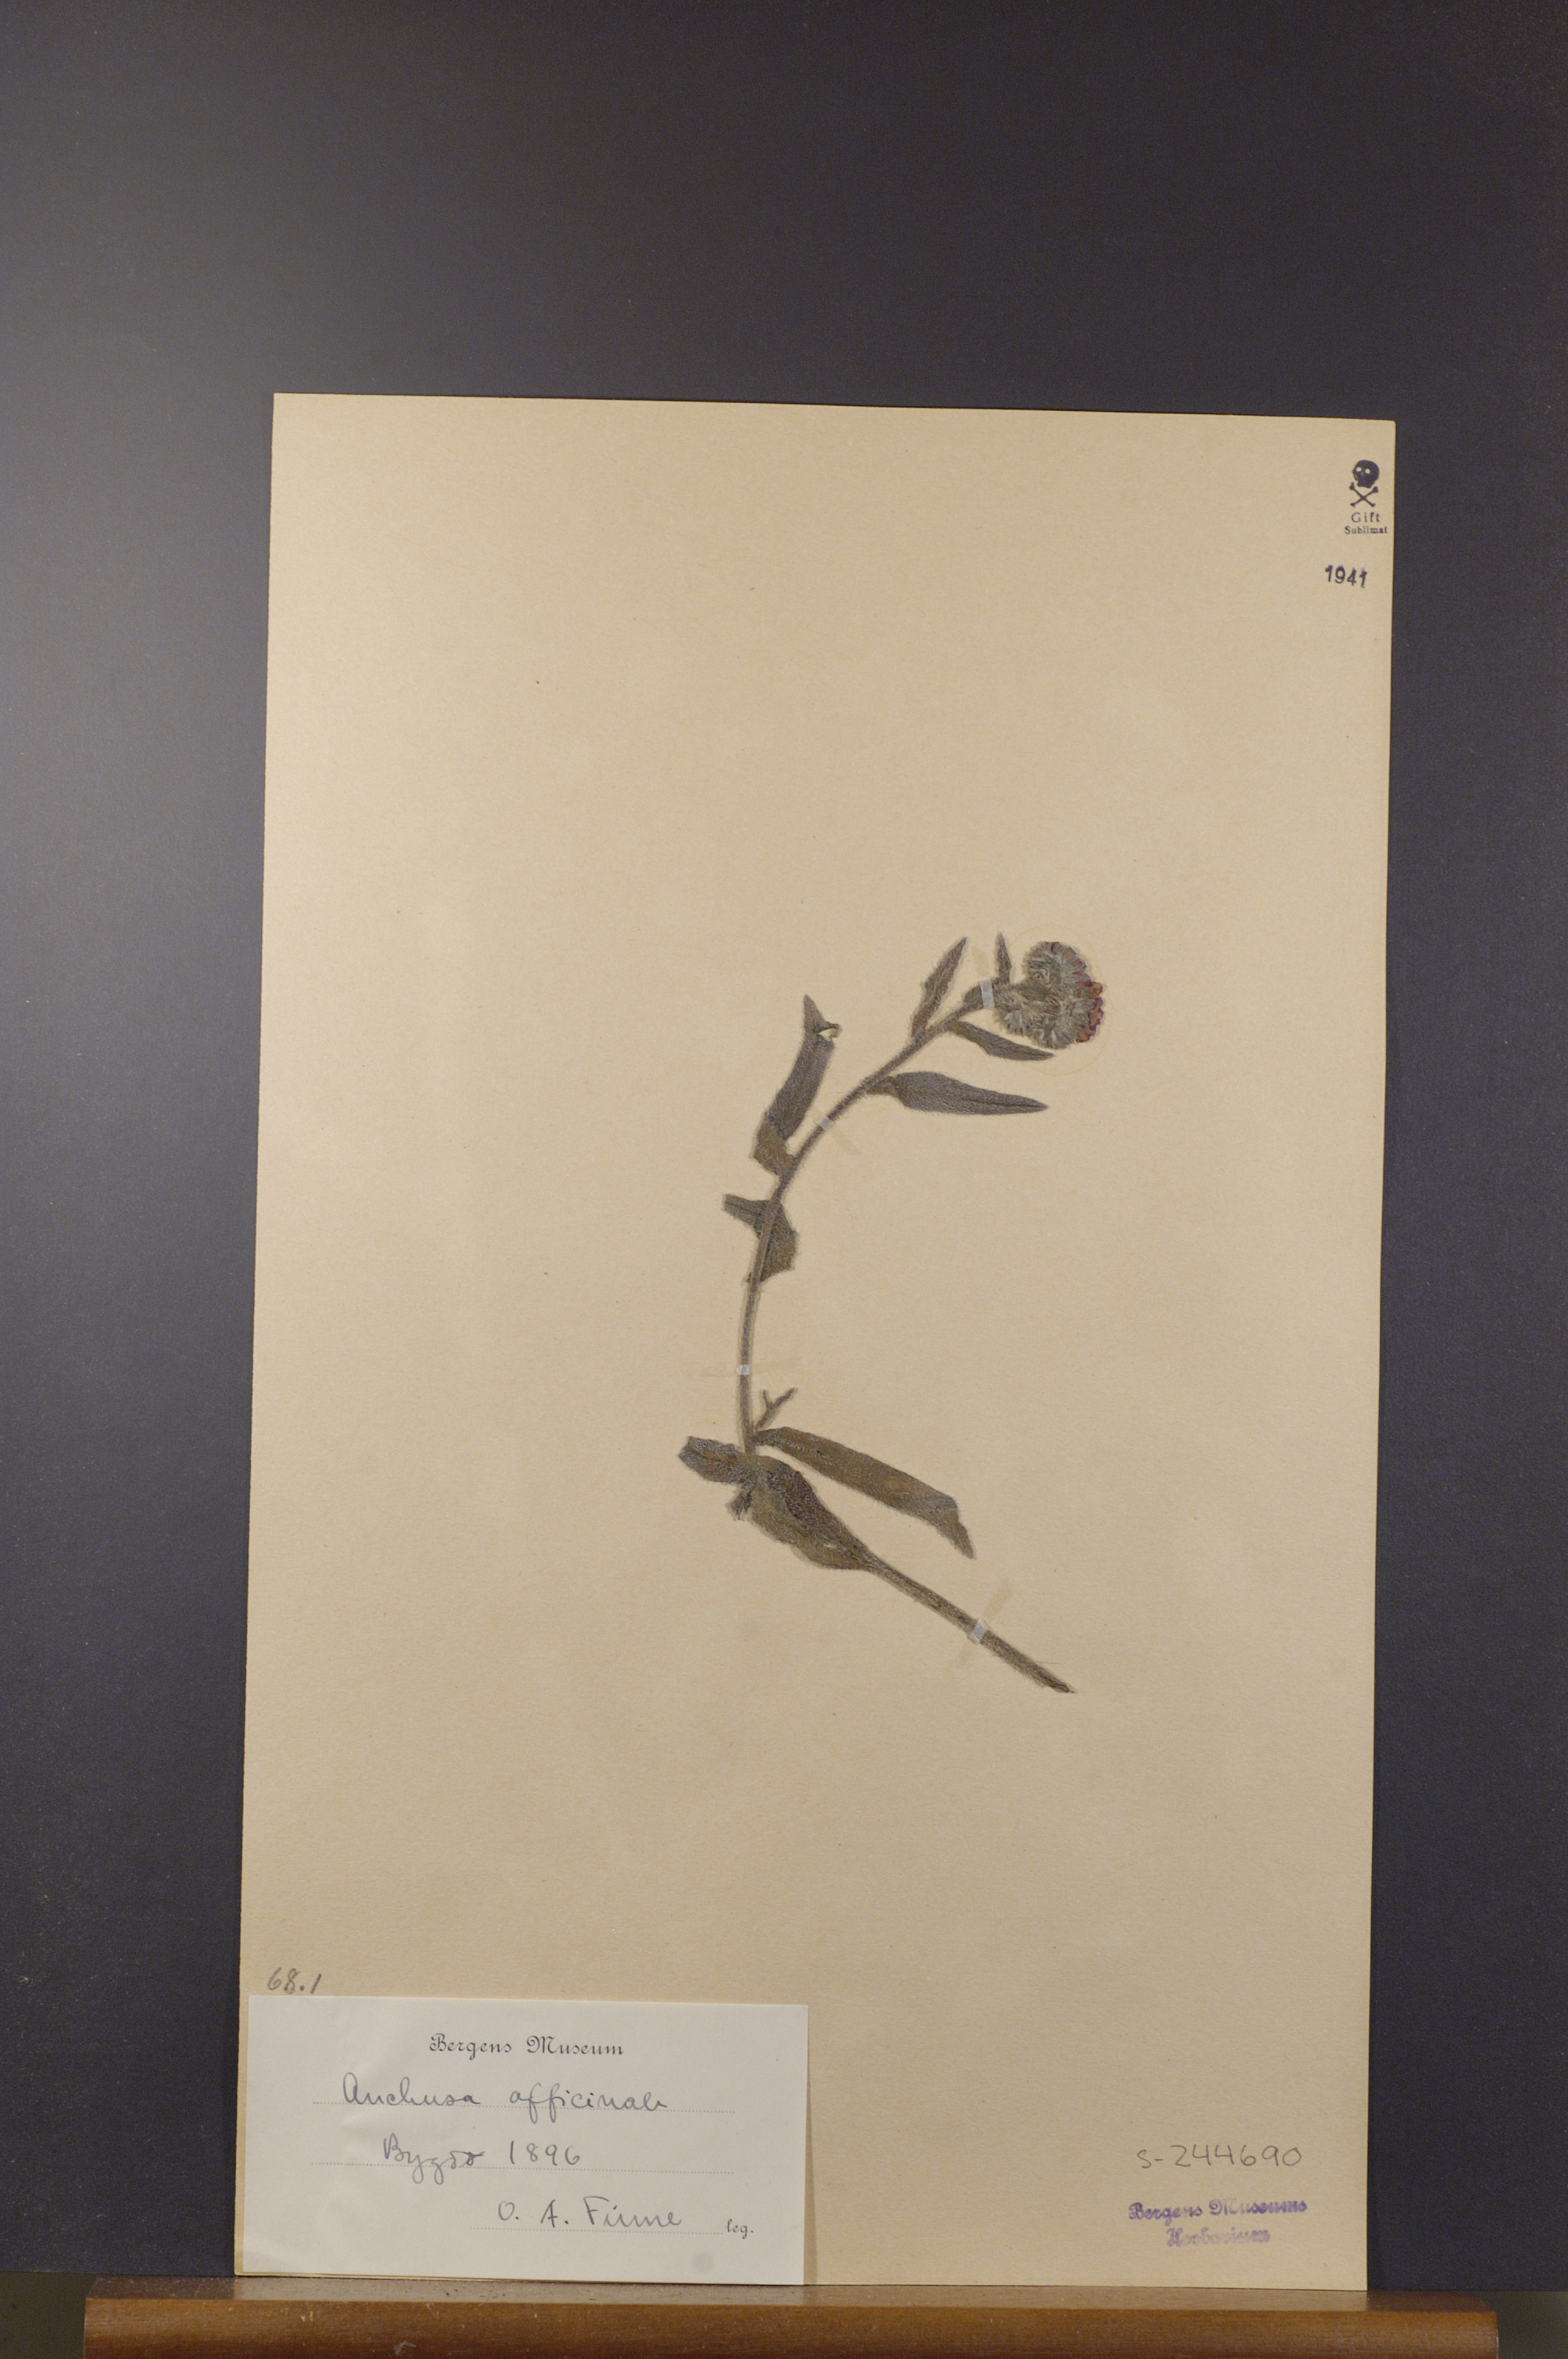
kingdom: Plantae
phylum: Tracheophyta
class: Magnoliopsida
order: Boraginales
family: Boraginaceae
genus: Anchusa
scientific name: Anchusa officinalis
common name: Alkanet
